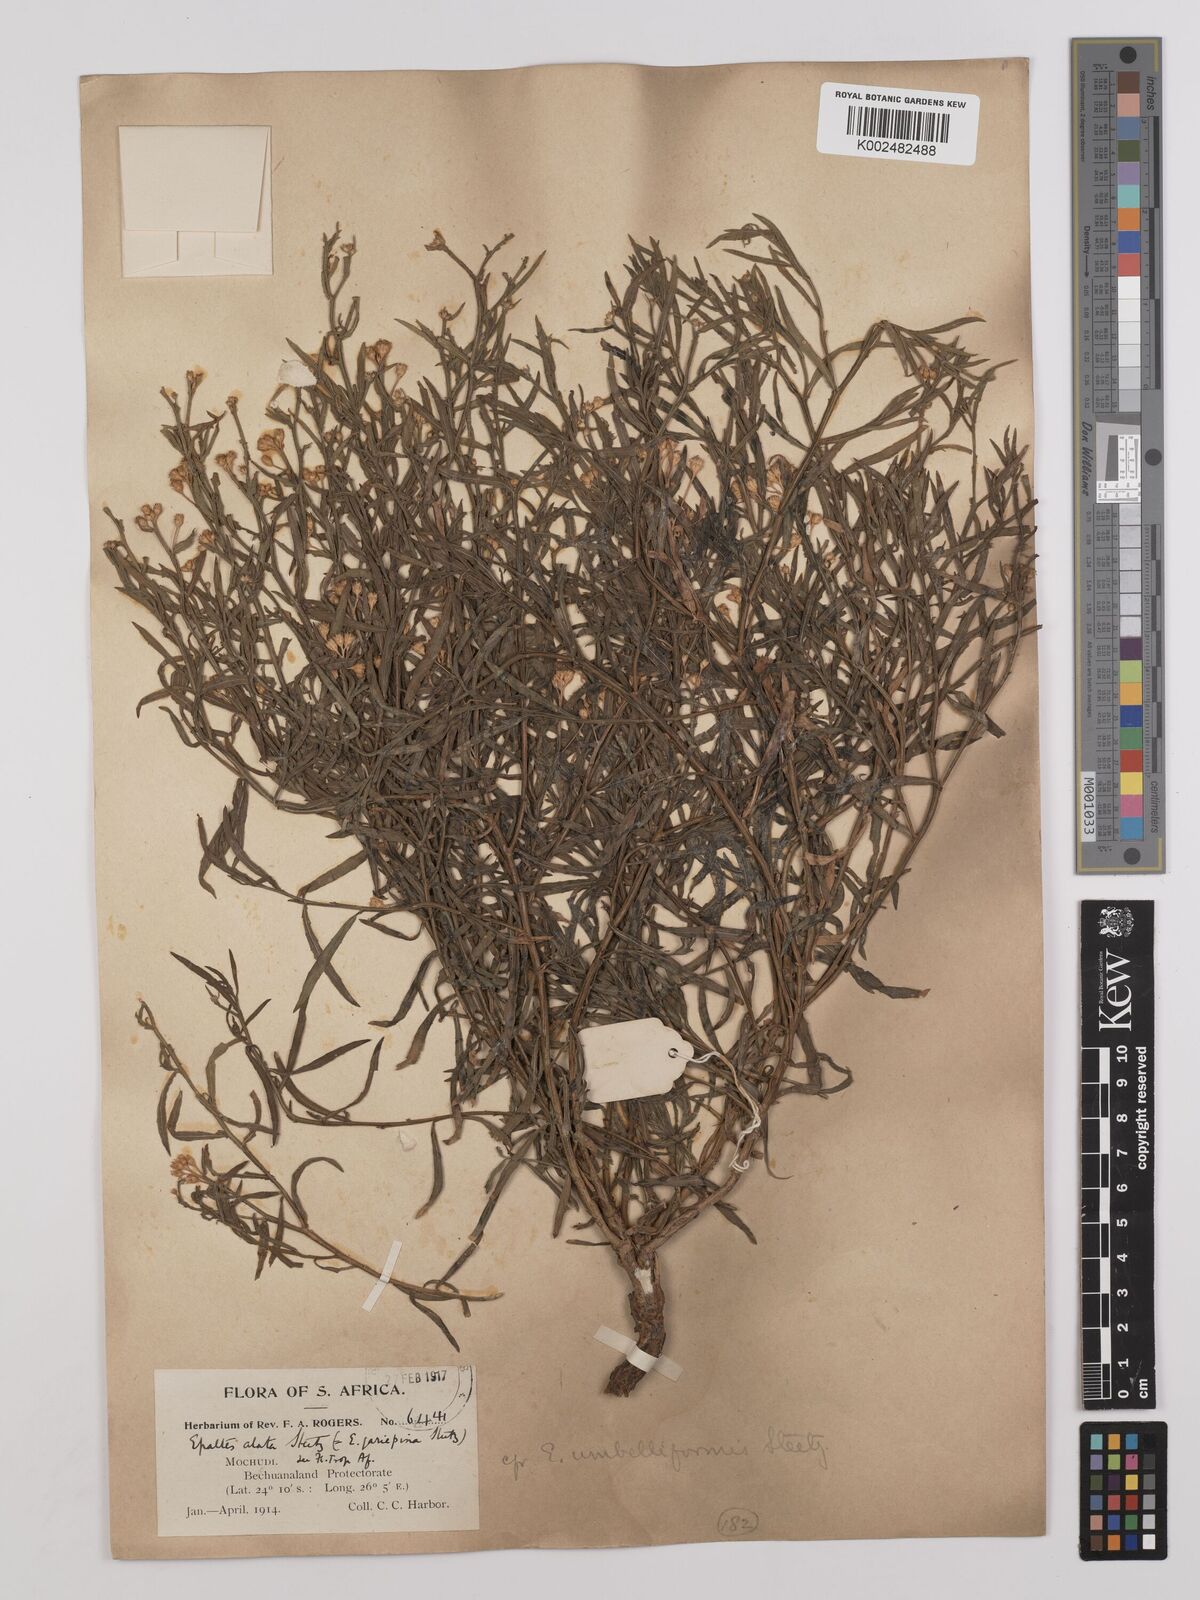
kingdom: Plantae
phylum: Tracheophyta
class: Magnoliopsida
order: Asterales
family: Asteraceae
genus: Litogyne
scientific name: Litogyne gariepina
